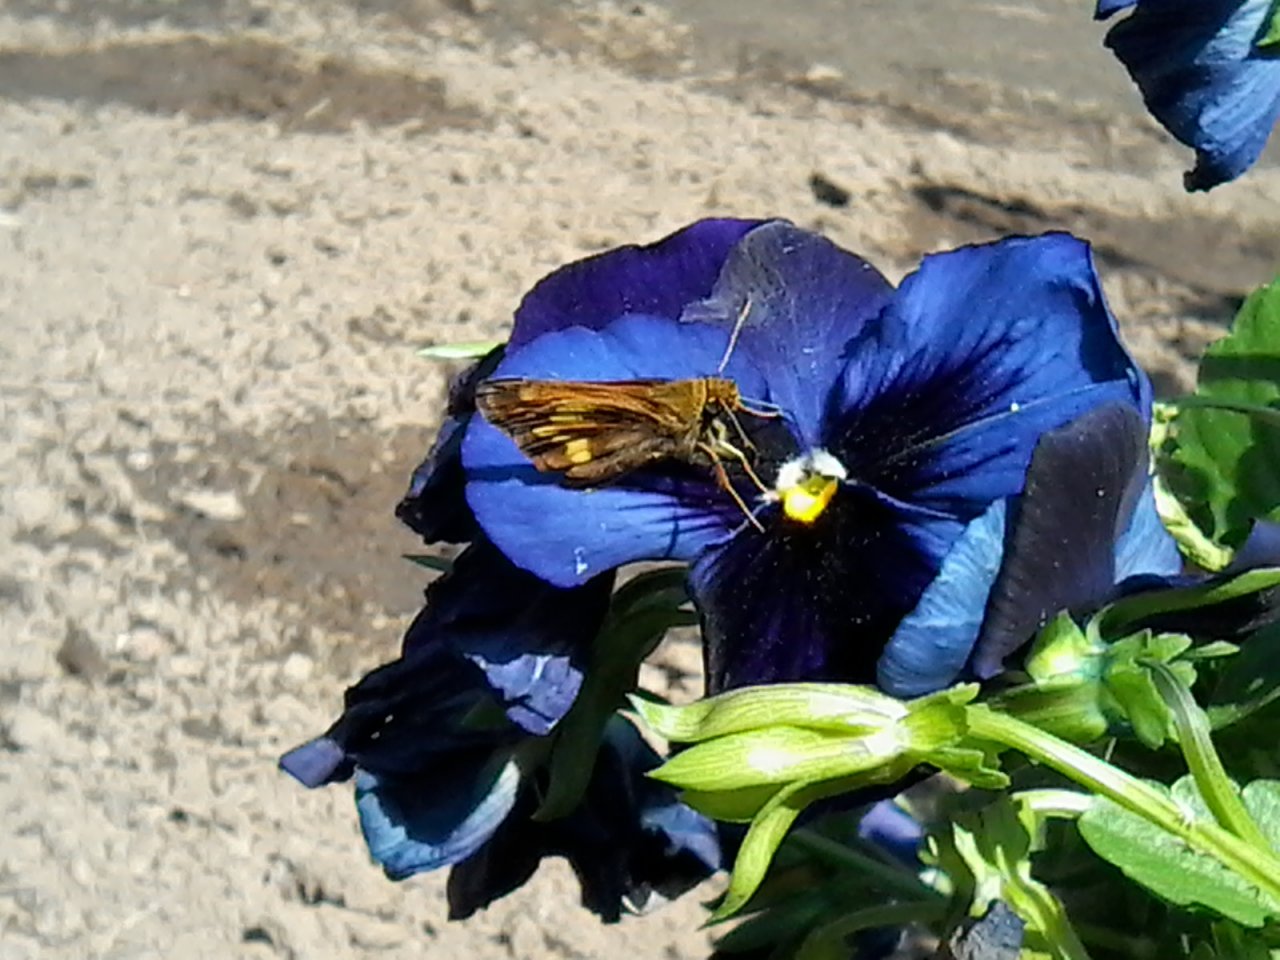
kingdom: Animalia
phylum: Arthropoda
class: Insecta
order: Lepidoptera
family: Hesperiidae
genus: Lon
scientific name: Lon hobomok
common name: Hobomok Skipper
